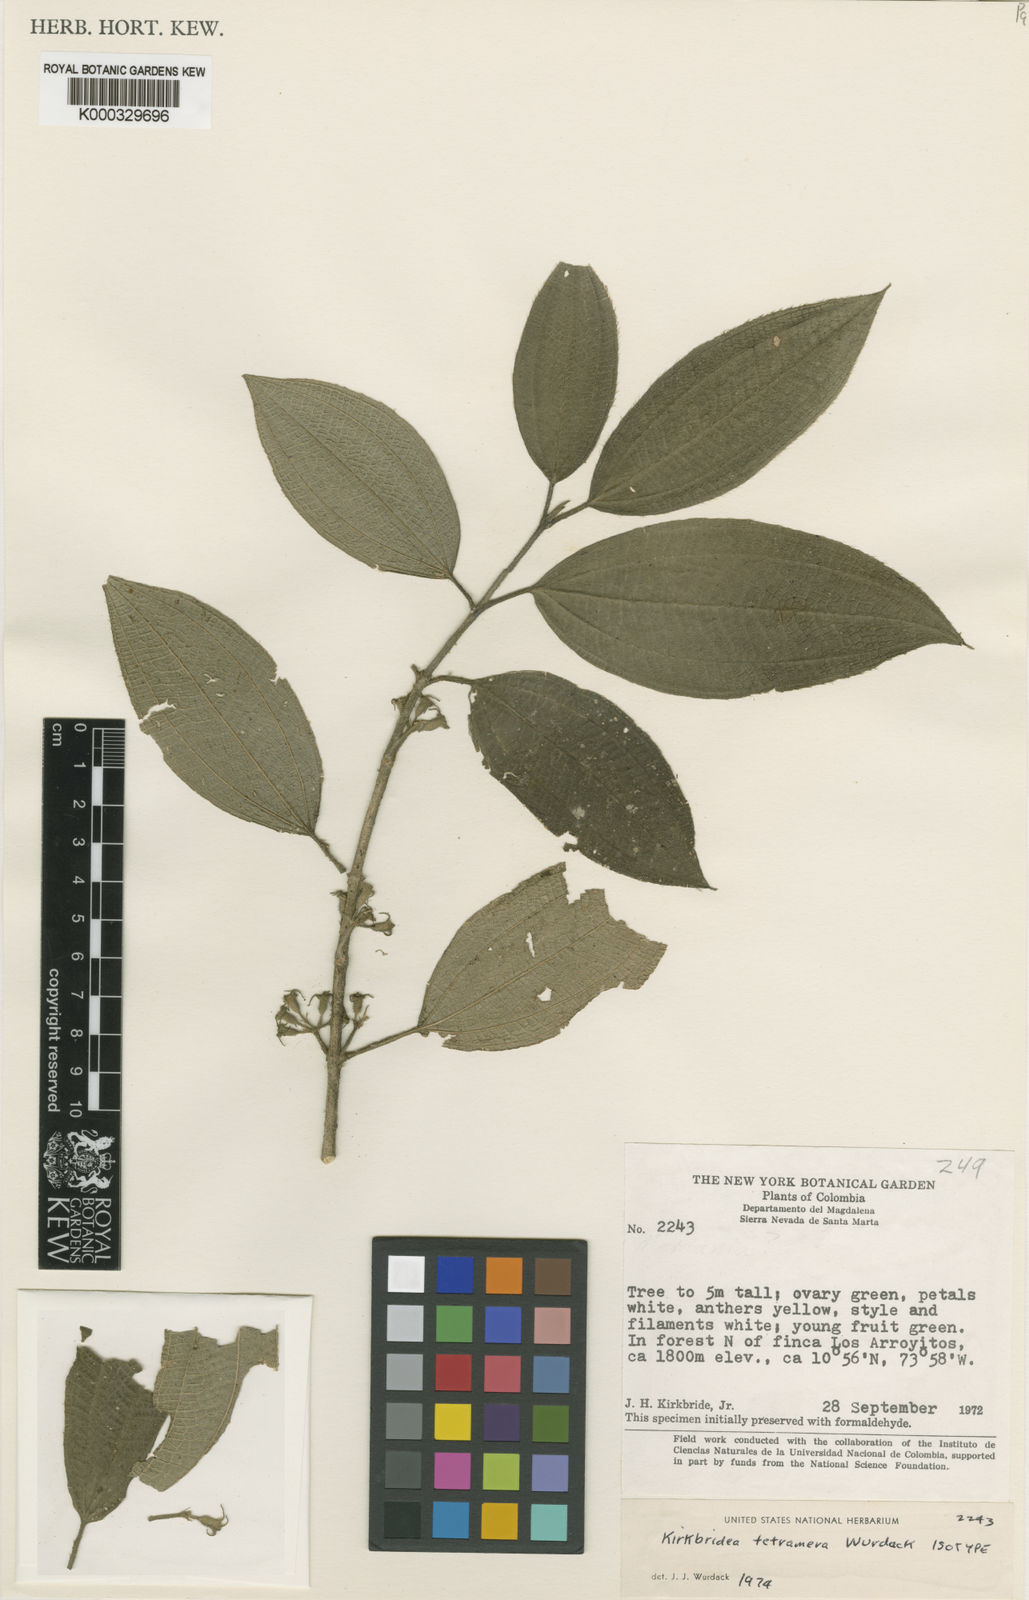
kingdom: Plantae
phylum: Tracheophyta
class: Magnoliopsida
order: Myrtales
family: Melastomataceae
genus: Kirkbridea
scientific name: Kirkbridea tetramera
